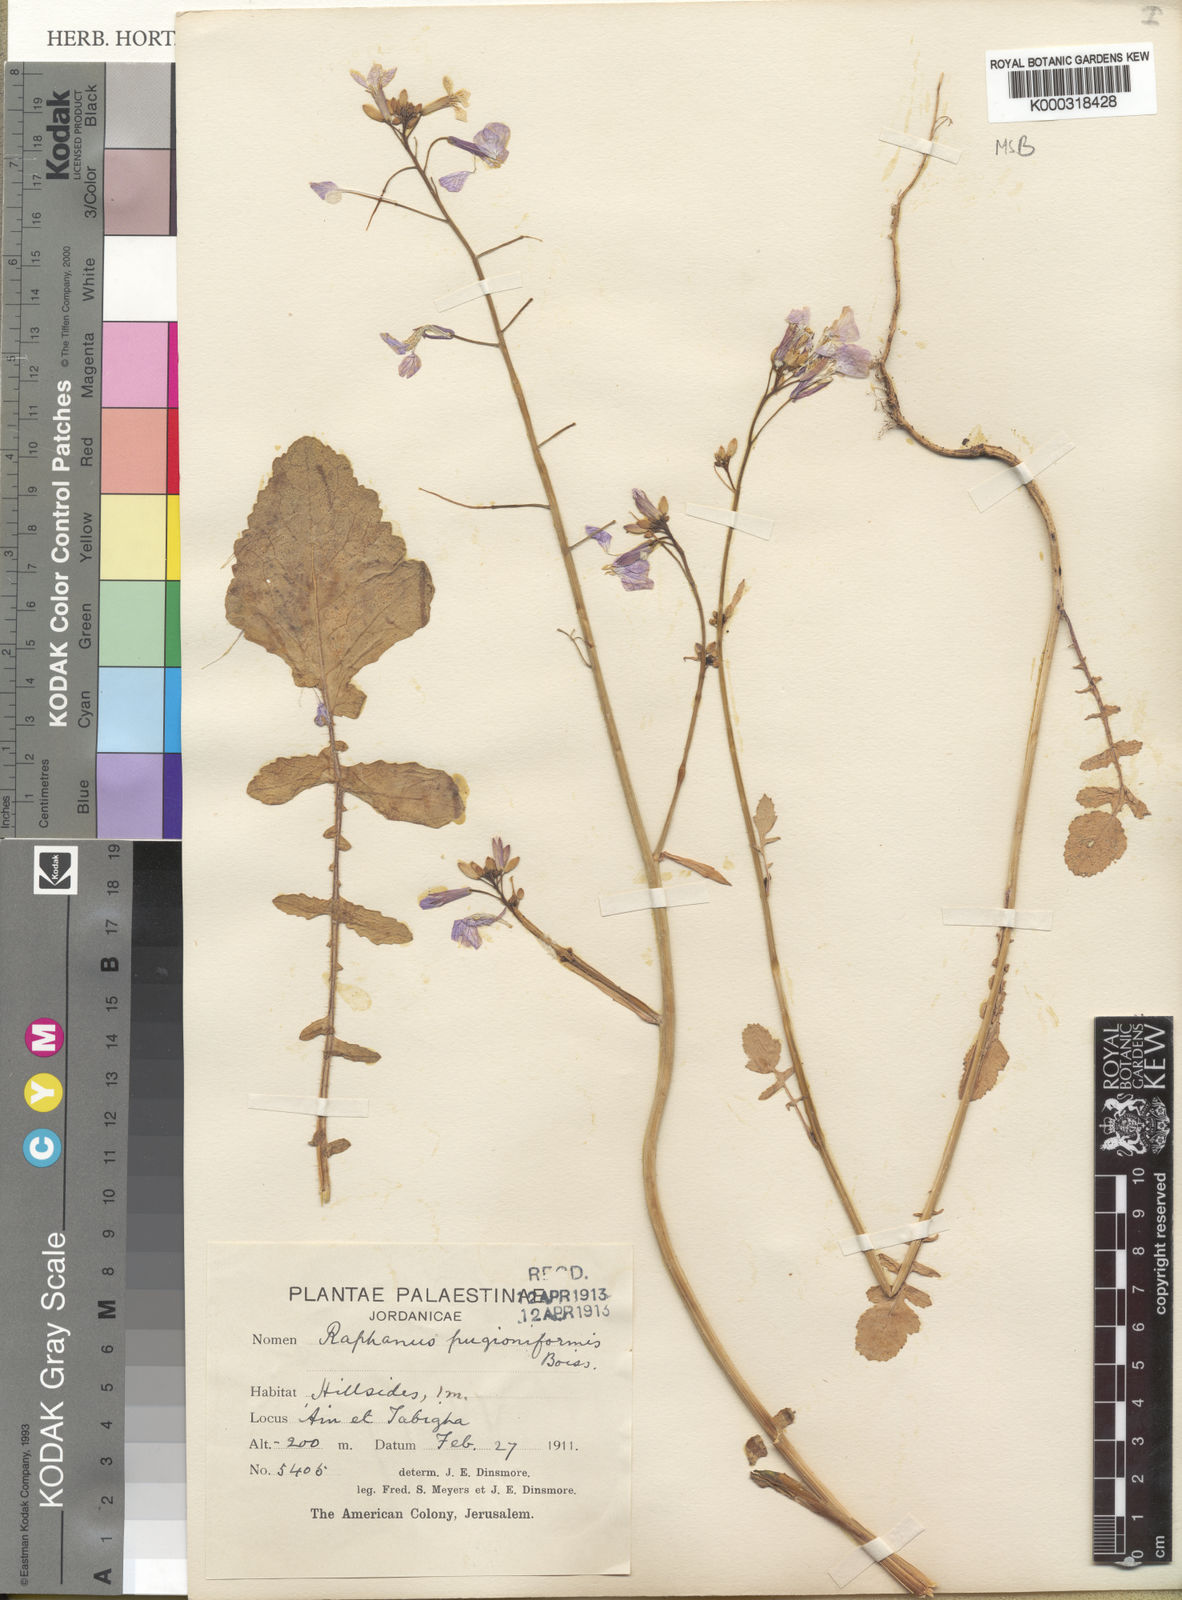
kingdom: Plantae
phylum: Tracheophyta
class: Magnoliopsida
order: Brassicales
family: Brassicaceae
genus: Raphanus
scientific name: Raphanus raphanistrum
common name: Wild radish
